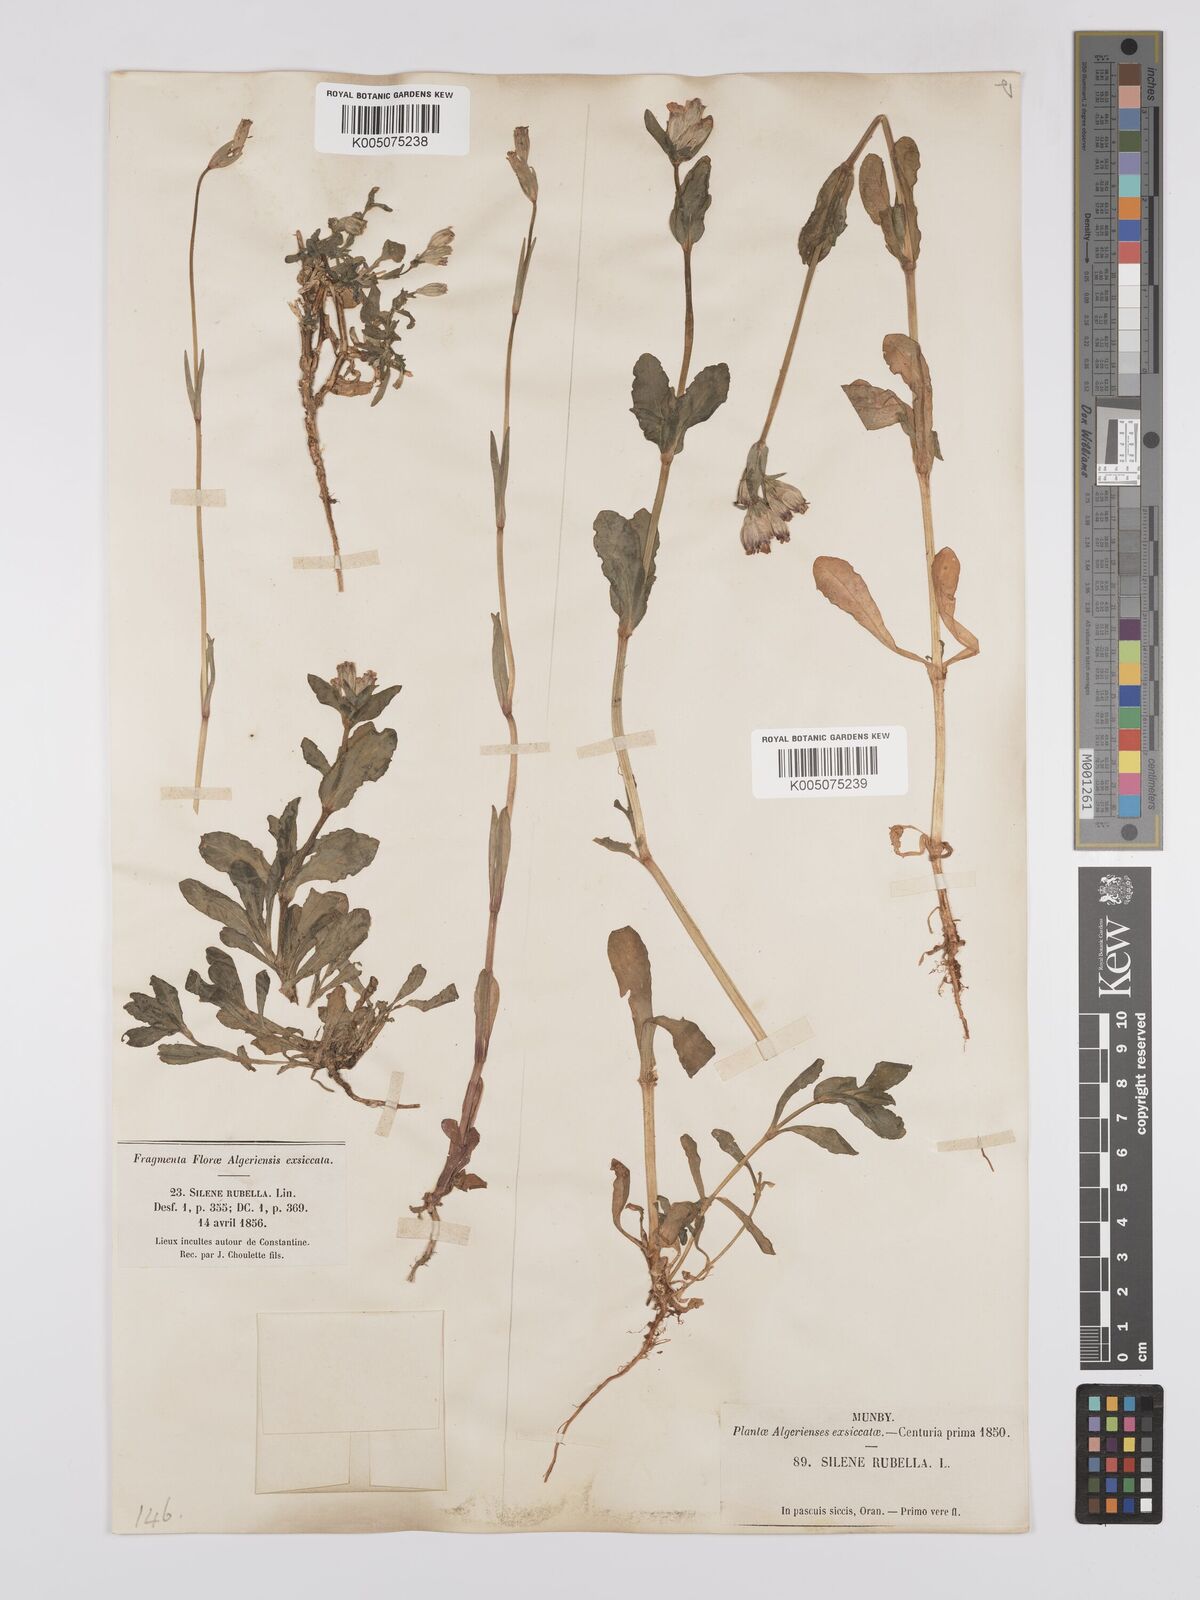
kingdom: Plantae
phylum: Tracheophyta
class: Magnoliopsida
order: Caryophyllales
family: Caryophyllaceae
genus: Silene
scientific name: Silene rubella
